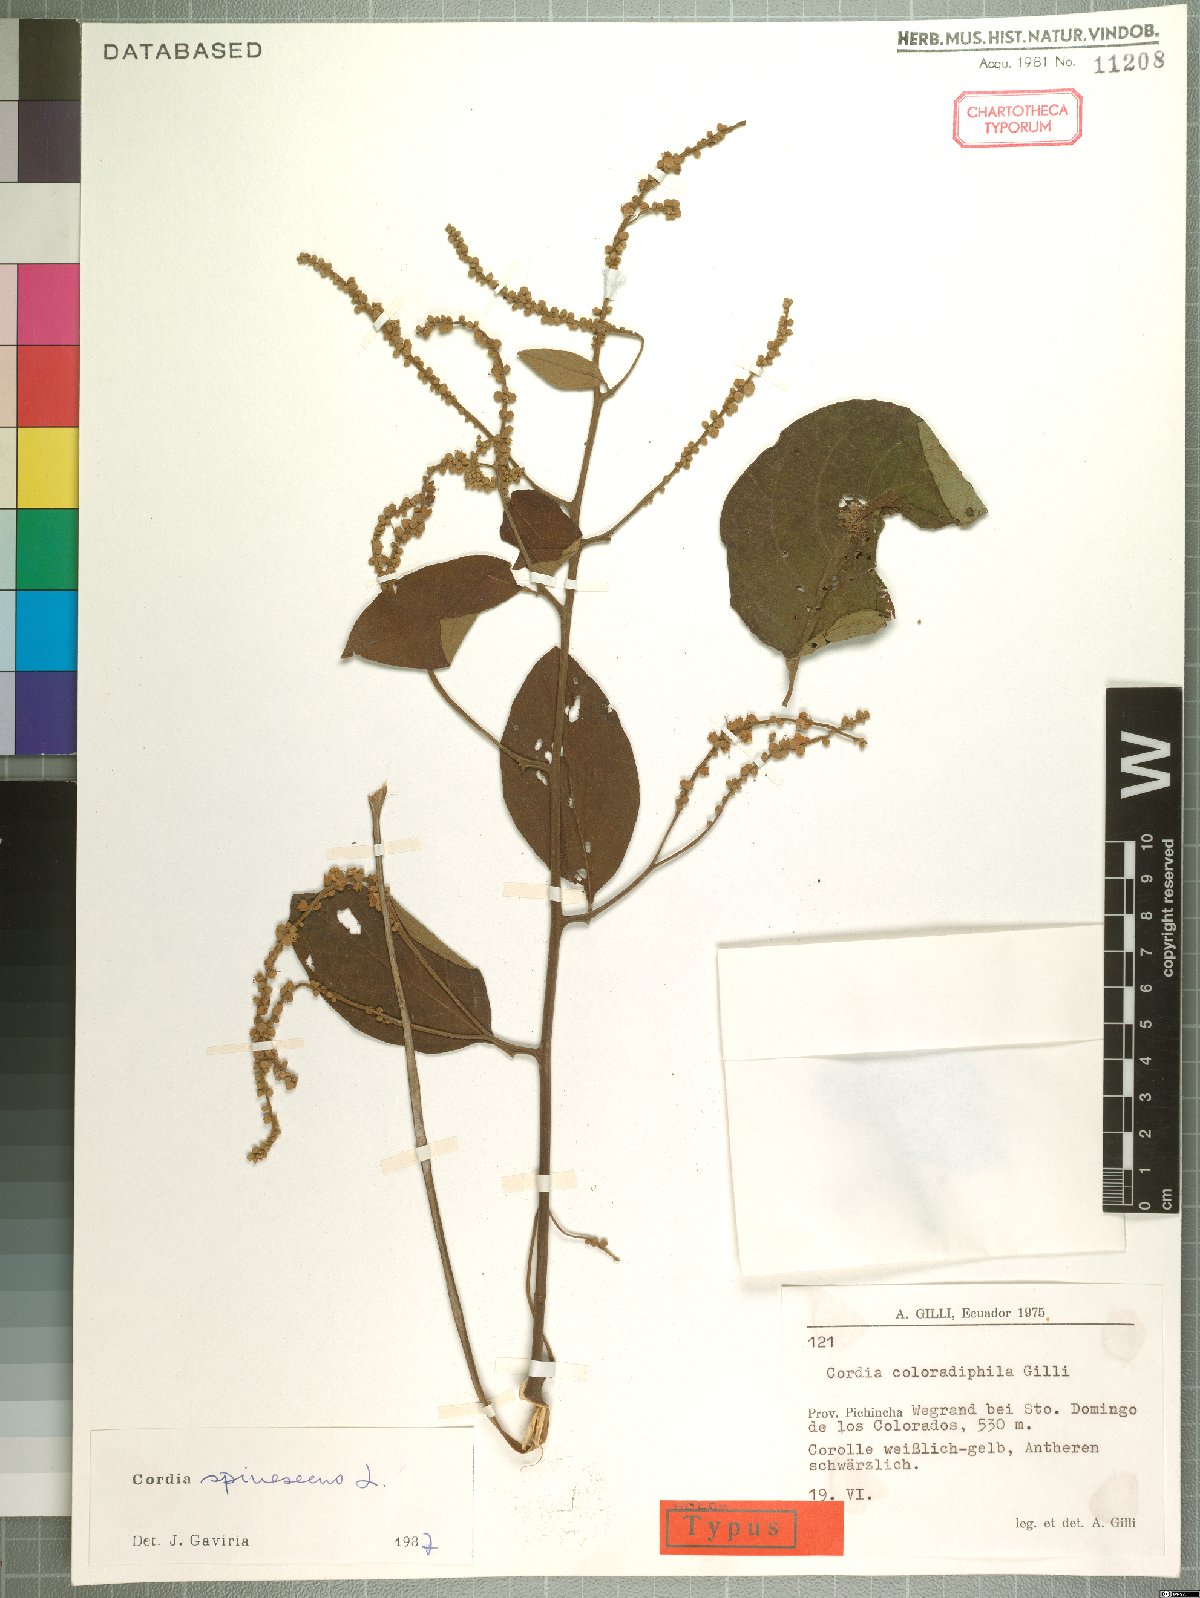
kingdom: Plantae
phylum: Tracheophyta
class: Magnoliopsida
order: Boraginales
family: Cordiaceae
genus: Varronia
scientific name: Varronia spinescens
